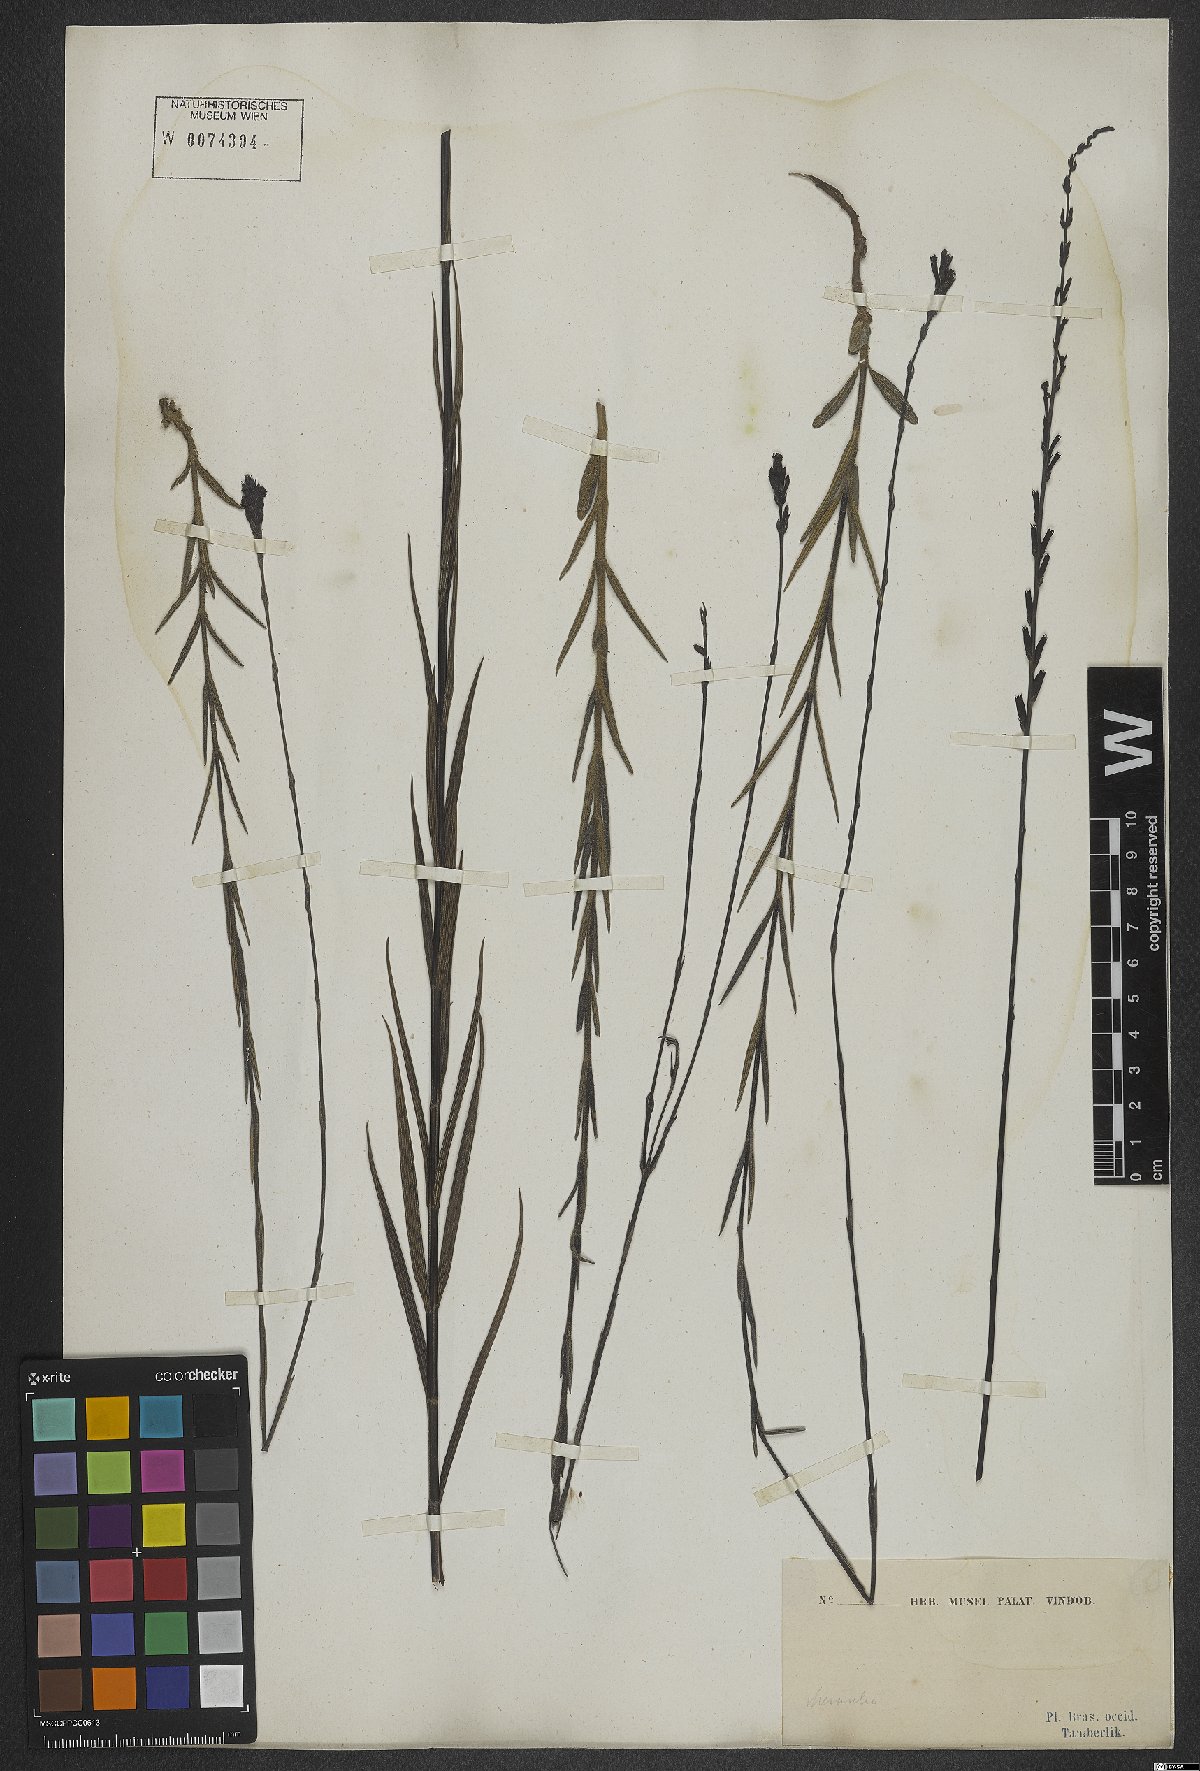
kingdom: Plantae
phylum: Tracheophyta
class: Magnoliopsida
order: Lamiales
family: Orobanchaceae
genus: Buchnera
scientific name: Buchnera
